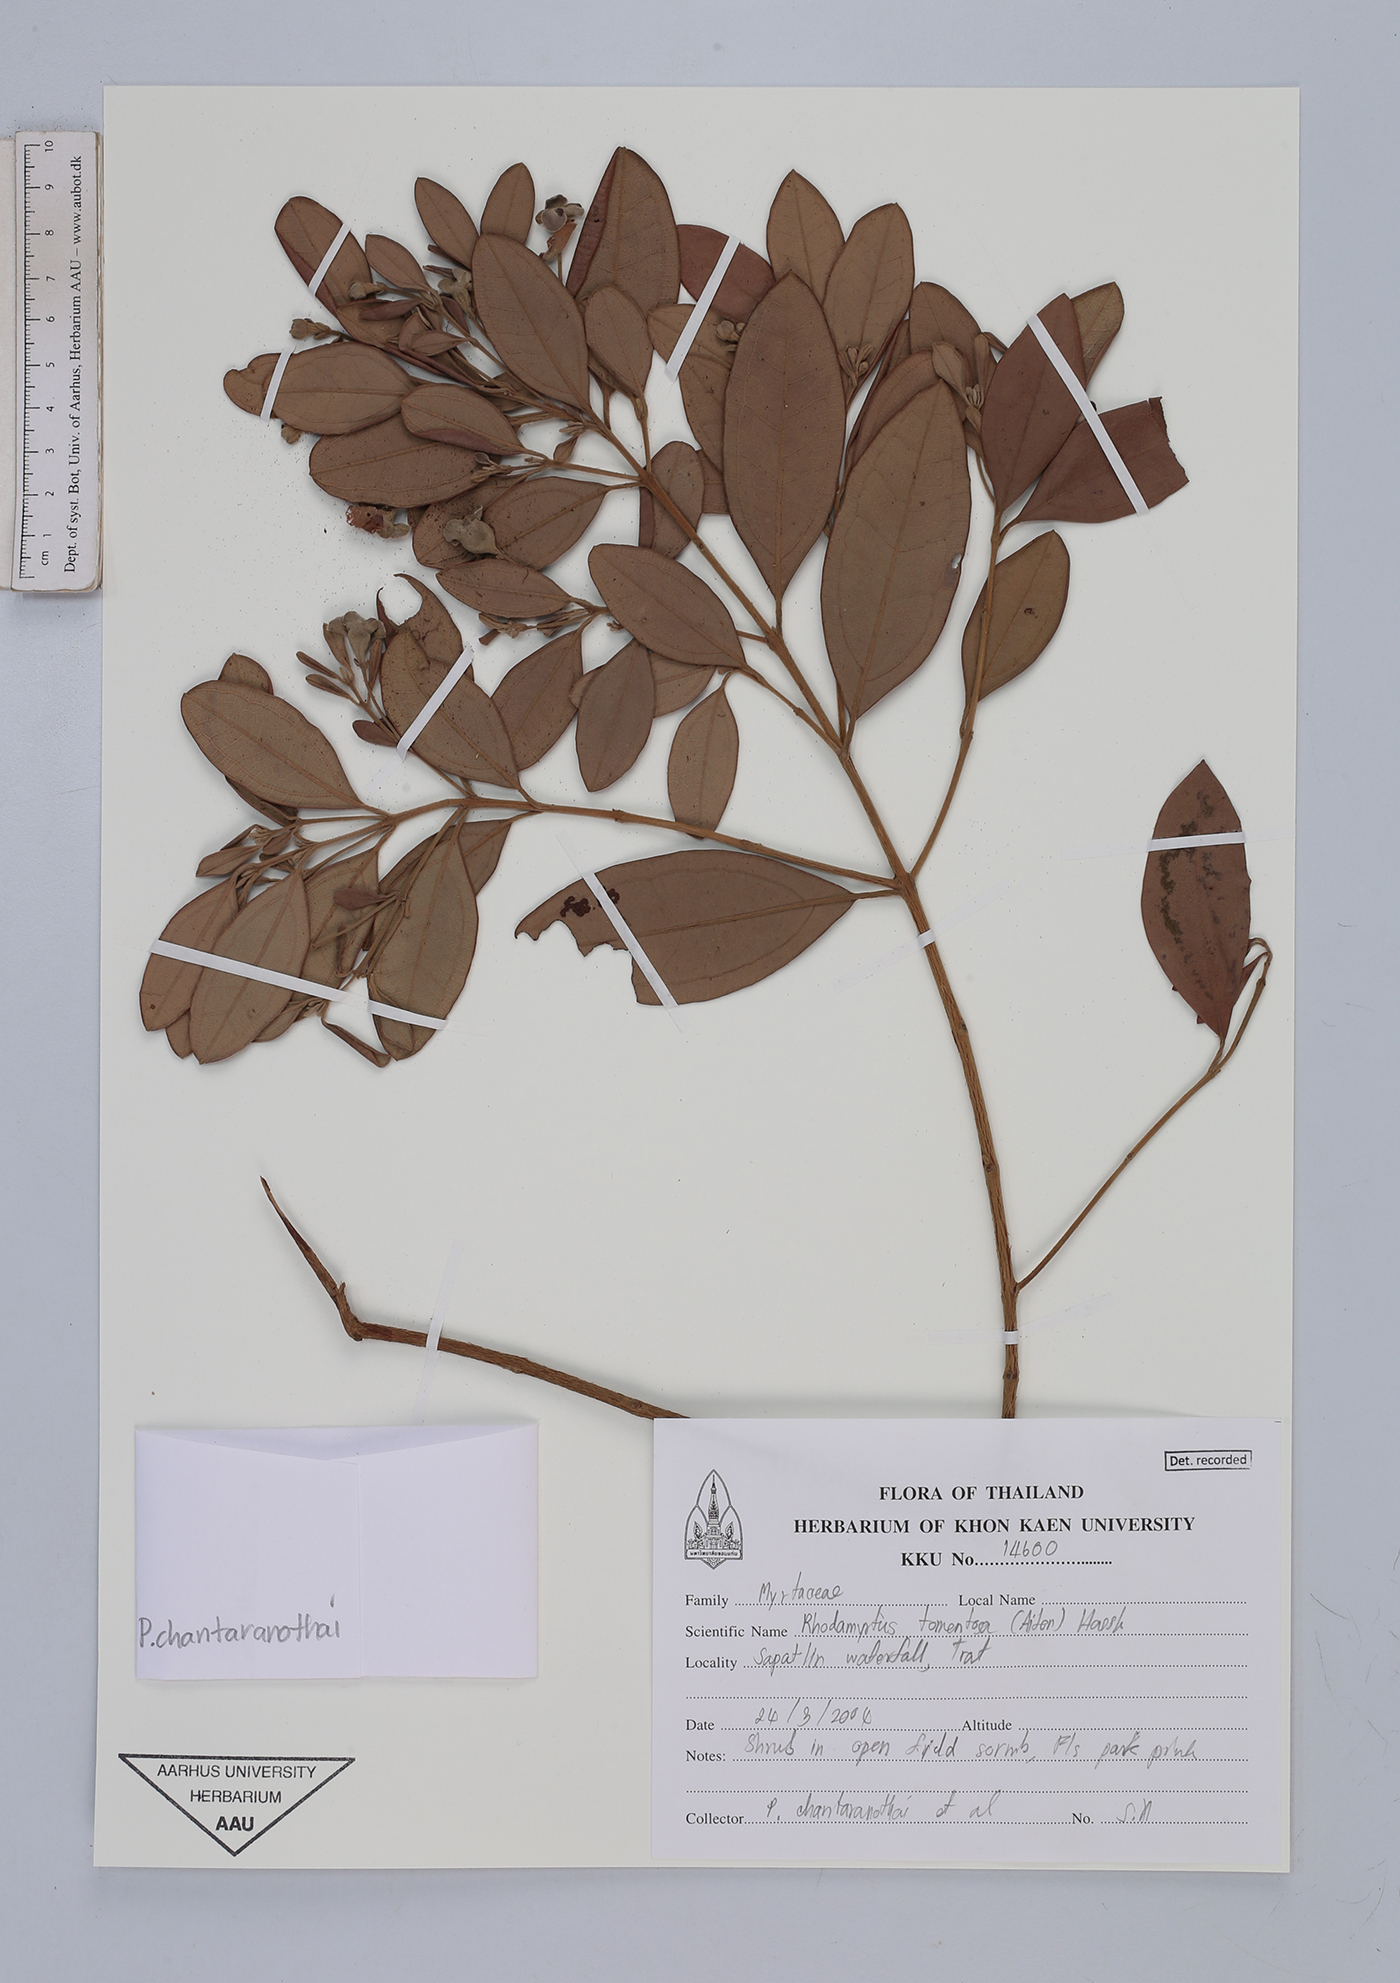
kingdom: Plantae
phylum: Tracheophyta
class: Magnoliopsida
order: Myrtales
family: Myrtaceae
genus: Rhodomyrtus
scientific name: Rhodomyrtus tomentosa
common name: Rose myrtle
